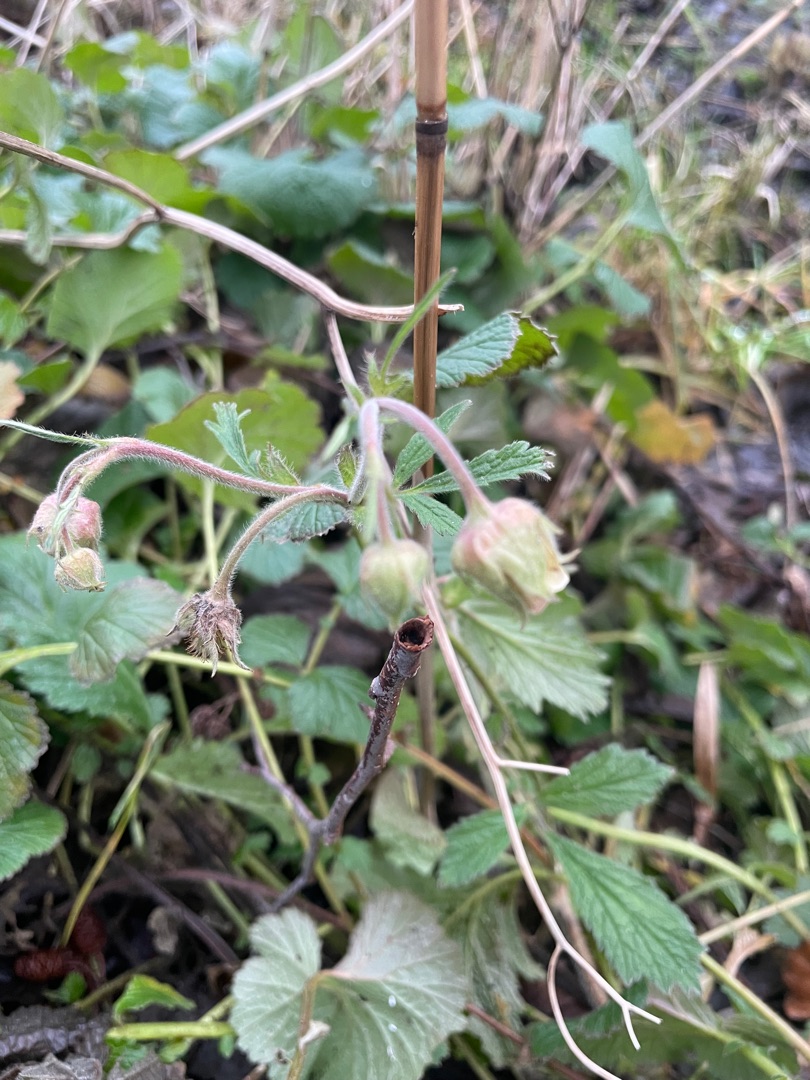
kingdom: Plantae
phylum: Tracheophyta
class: Magnoliopsida
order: Rosales
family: Rosaceae
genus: Geum
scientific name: Geum urbanum
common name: Feber-nellikerod
